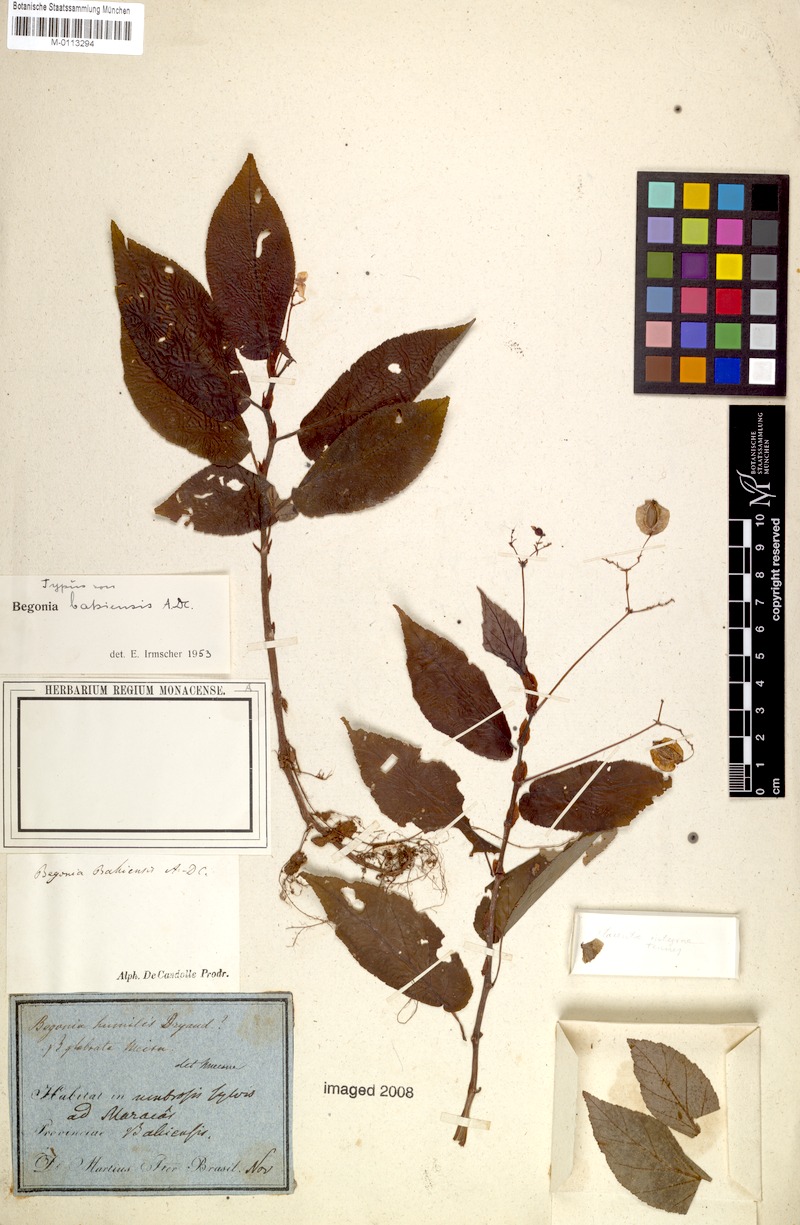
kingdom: Plantae
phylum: Tracheophyta
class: Magnoliopsida
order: Cucurbitales
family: Begoniaceae
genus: Begonia
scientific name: Begonia bahiensis
